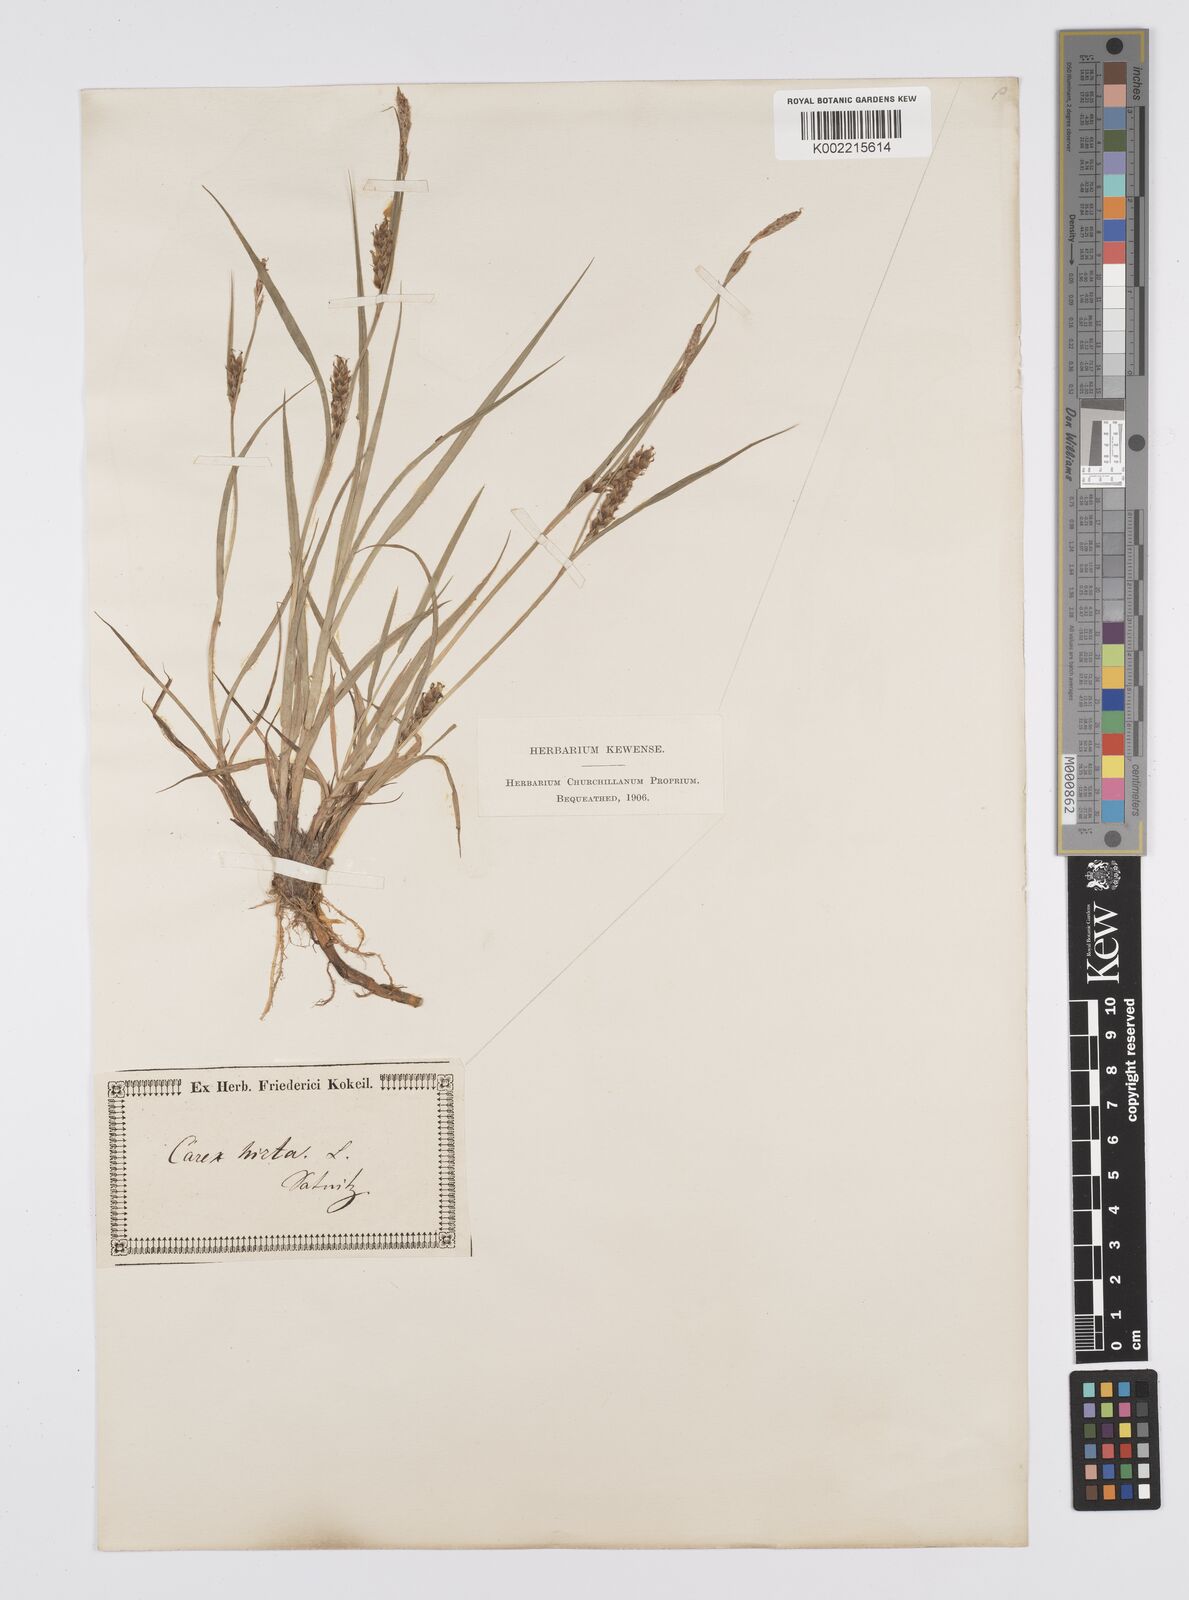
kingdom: Plantae
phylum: Tracheophyta
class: Liliopsida
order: Poales
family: Cyperaceae
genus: Carex
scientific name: Carex hirta
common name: Hairy sedge
